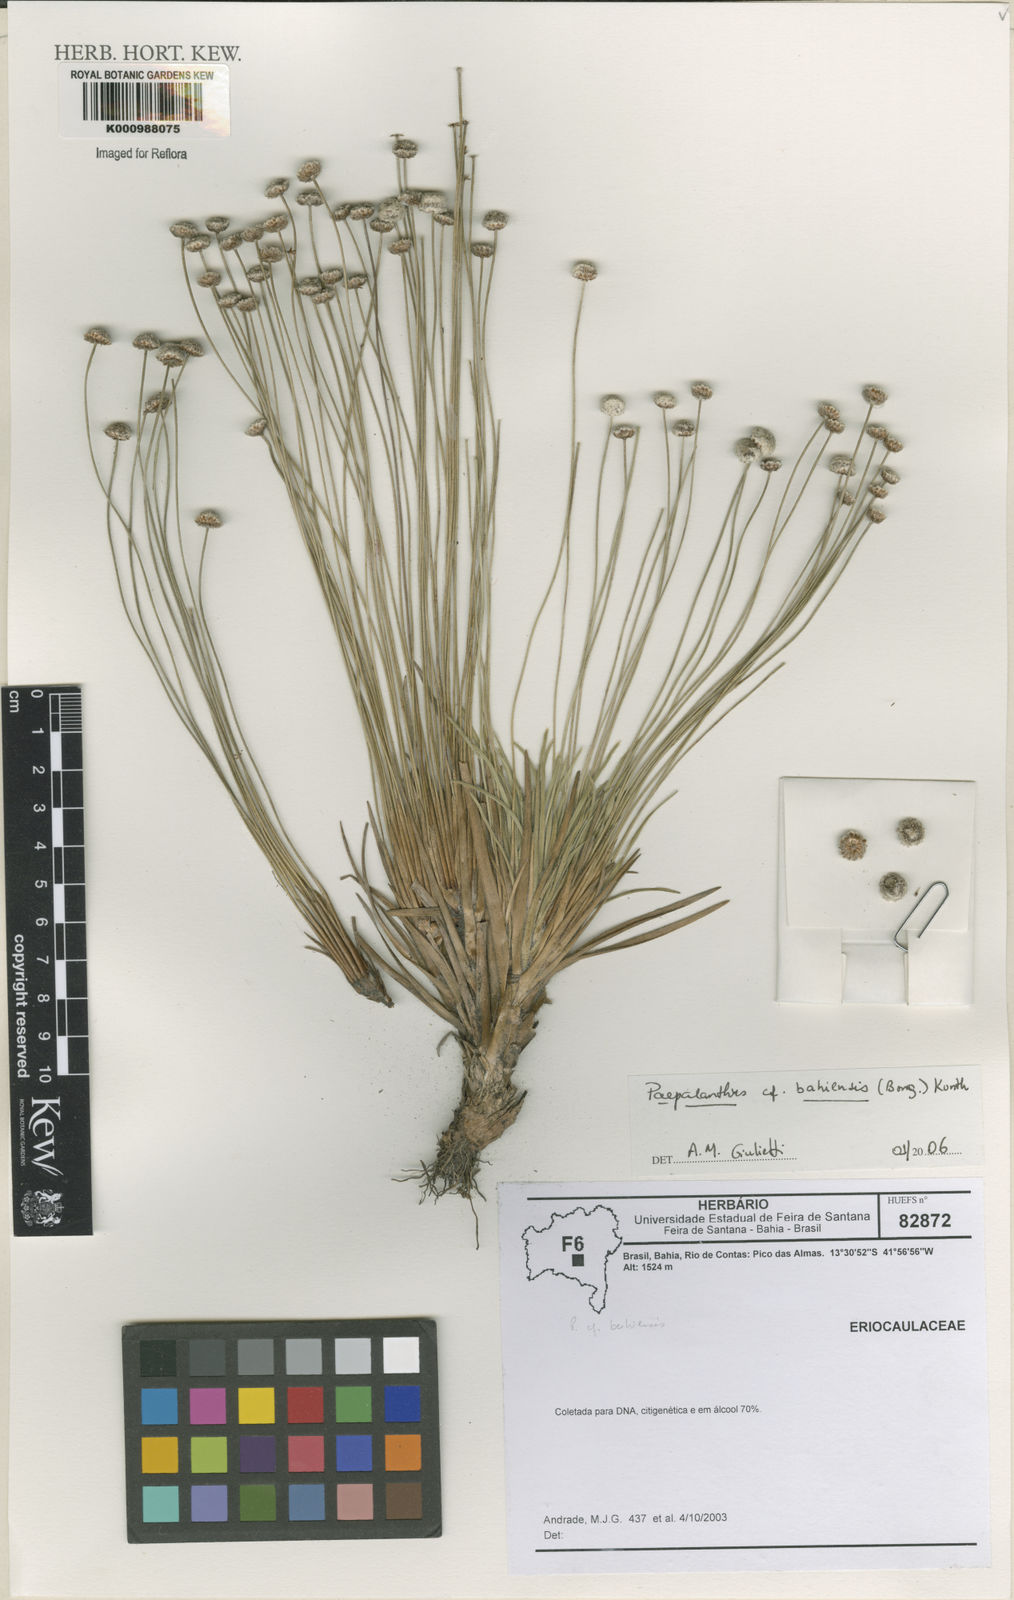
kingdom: Plantae
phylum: Tracheophyta
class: Liliopsida
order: Poales
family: Eriocaulaceae
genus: Paepalanthus
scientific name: Paepalanthus bahiensis
